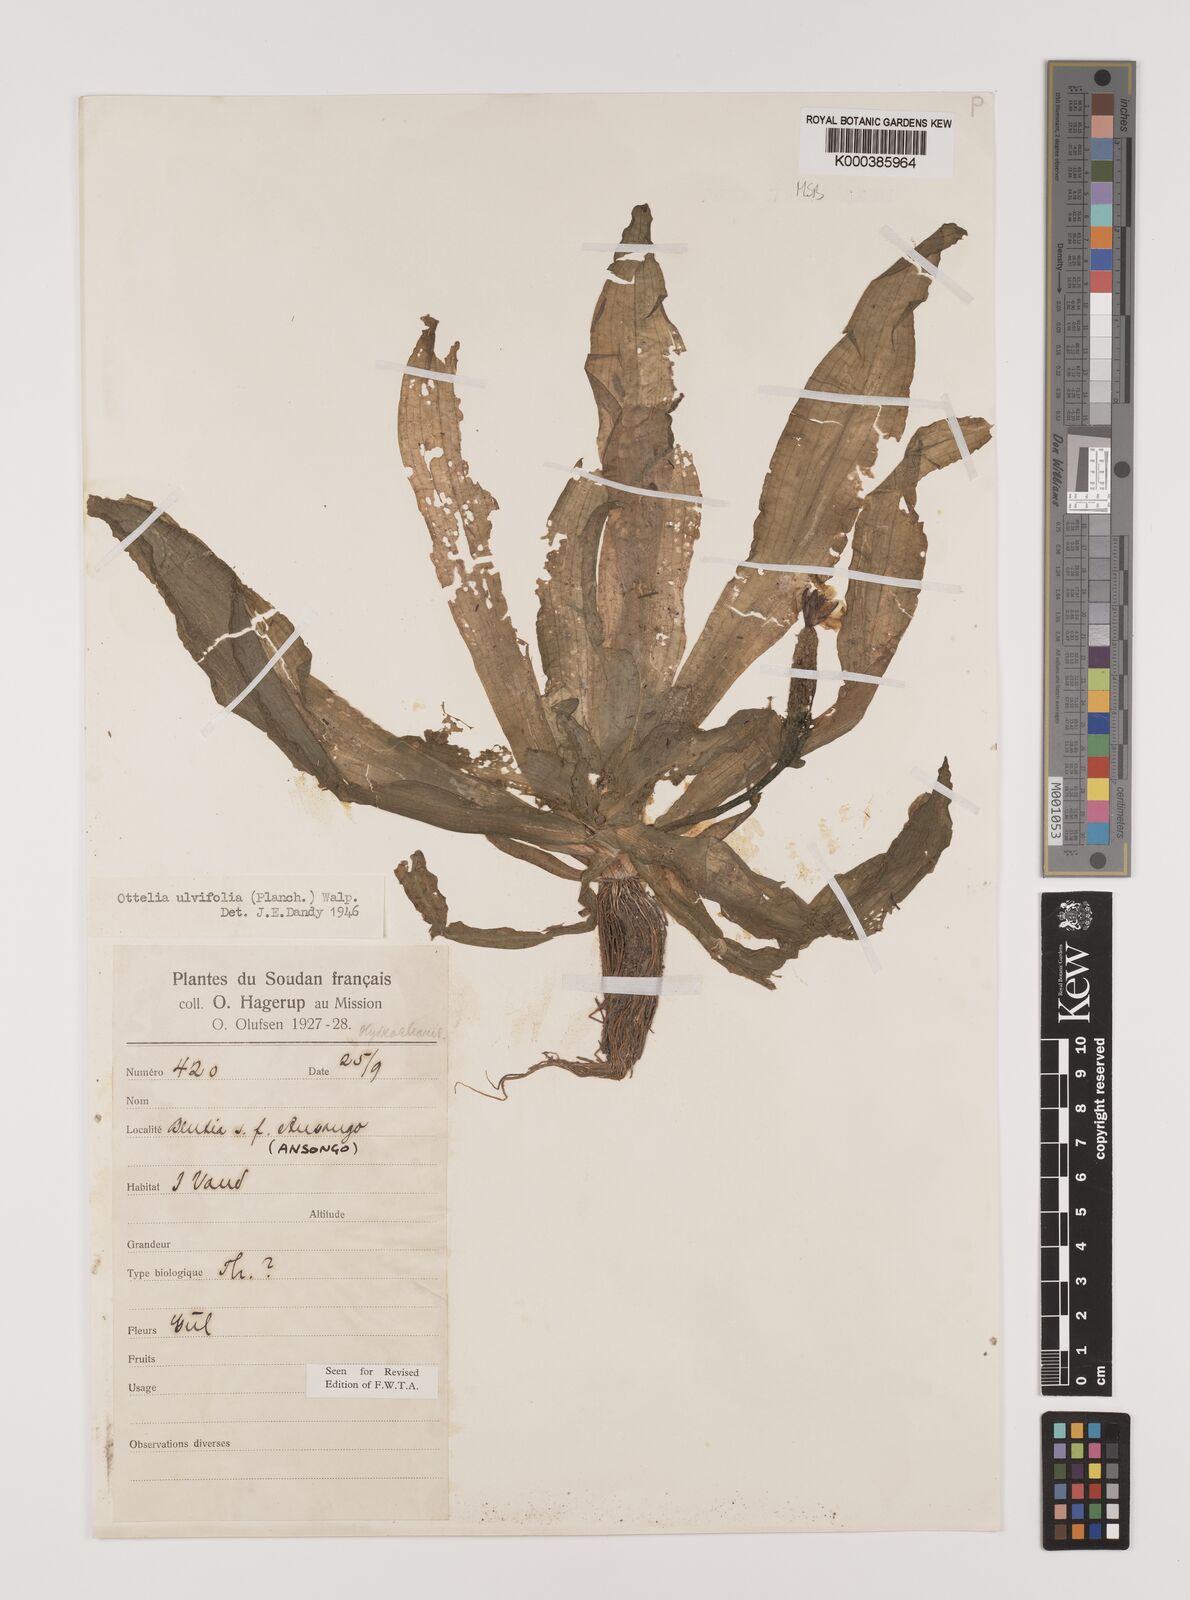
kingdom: Plantae
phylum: Tracheophyta
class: Liliopsida
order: Alismatales
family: Hydrocharitaceae
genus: Ottelia
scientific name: Ottelia ulvifolia
